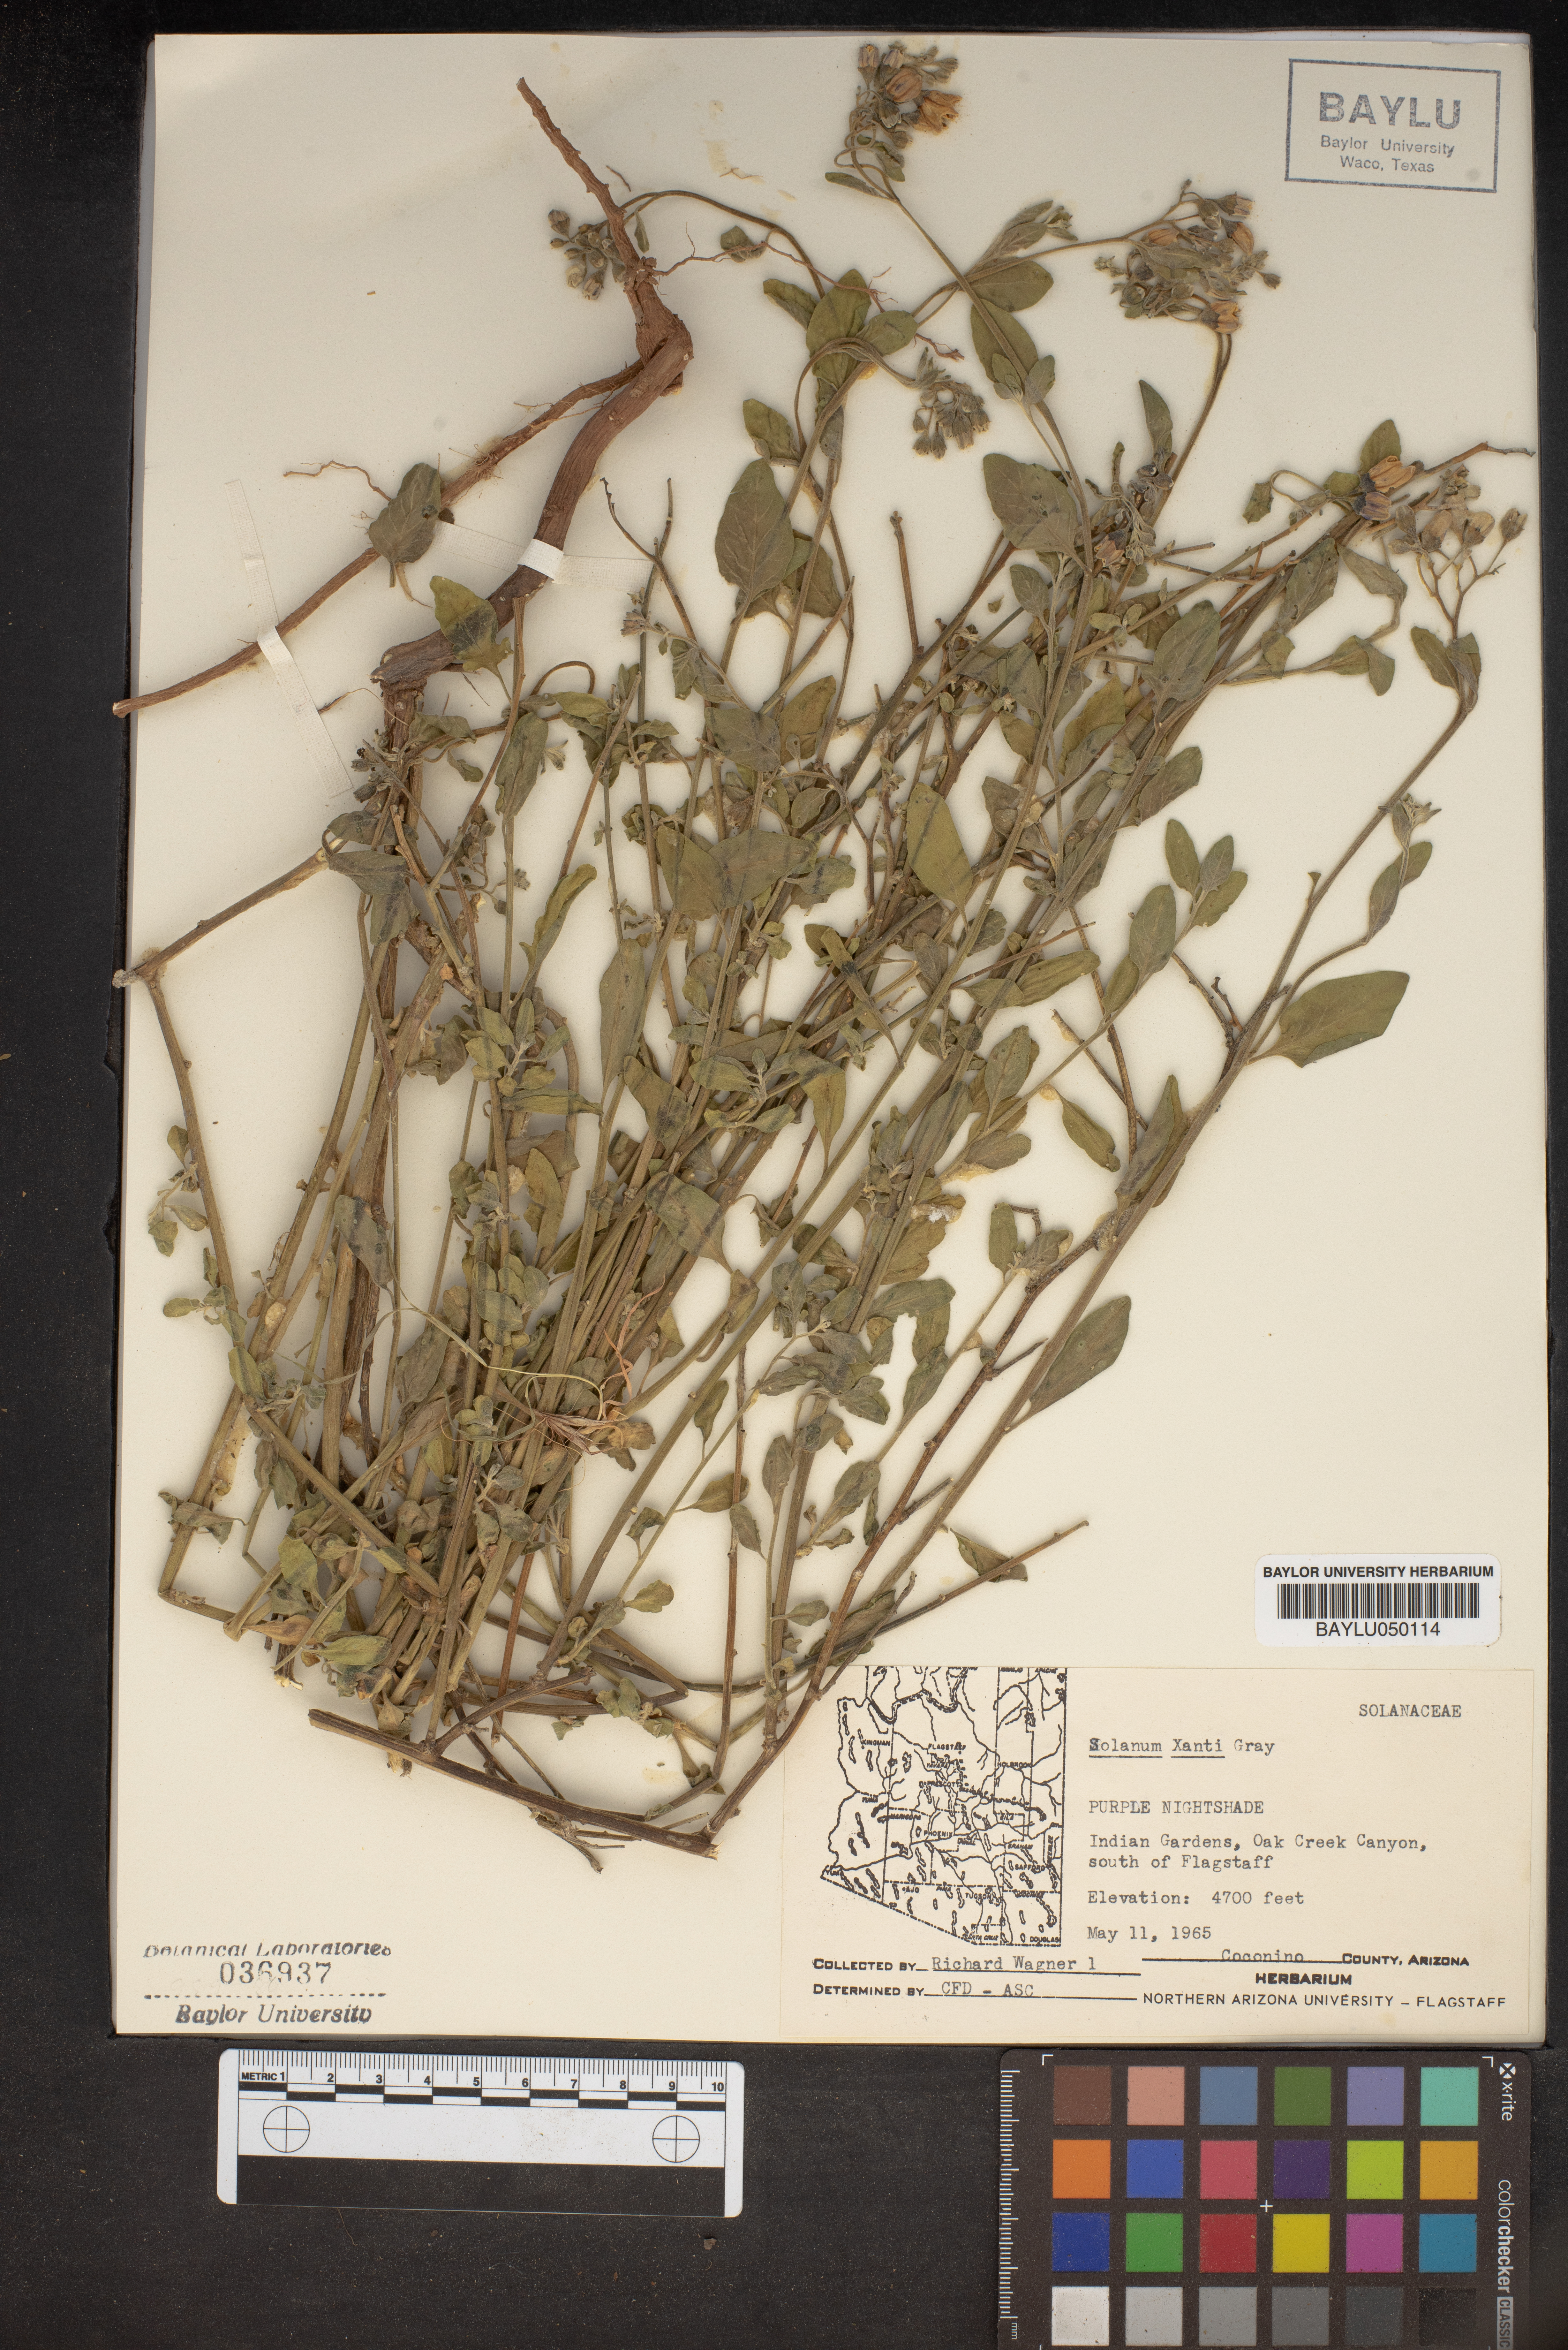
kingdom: Plantae
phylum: Tracheophyta
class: Magnoliopsida
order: Solanales
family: Solanaceae
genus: Solanum
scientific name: Solanum umbelliferum
